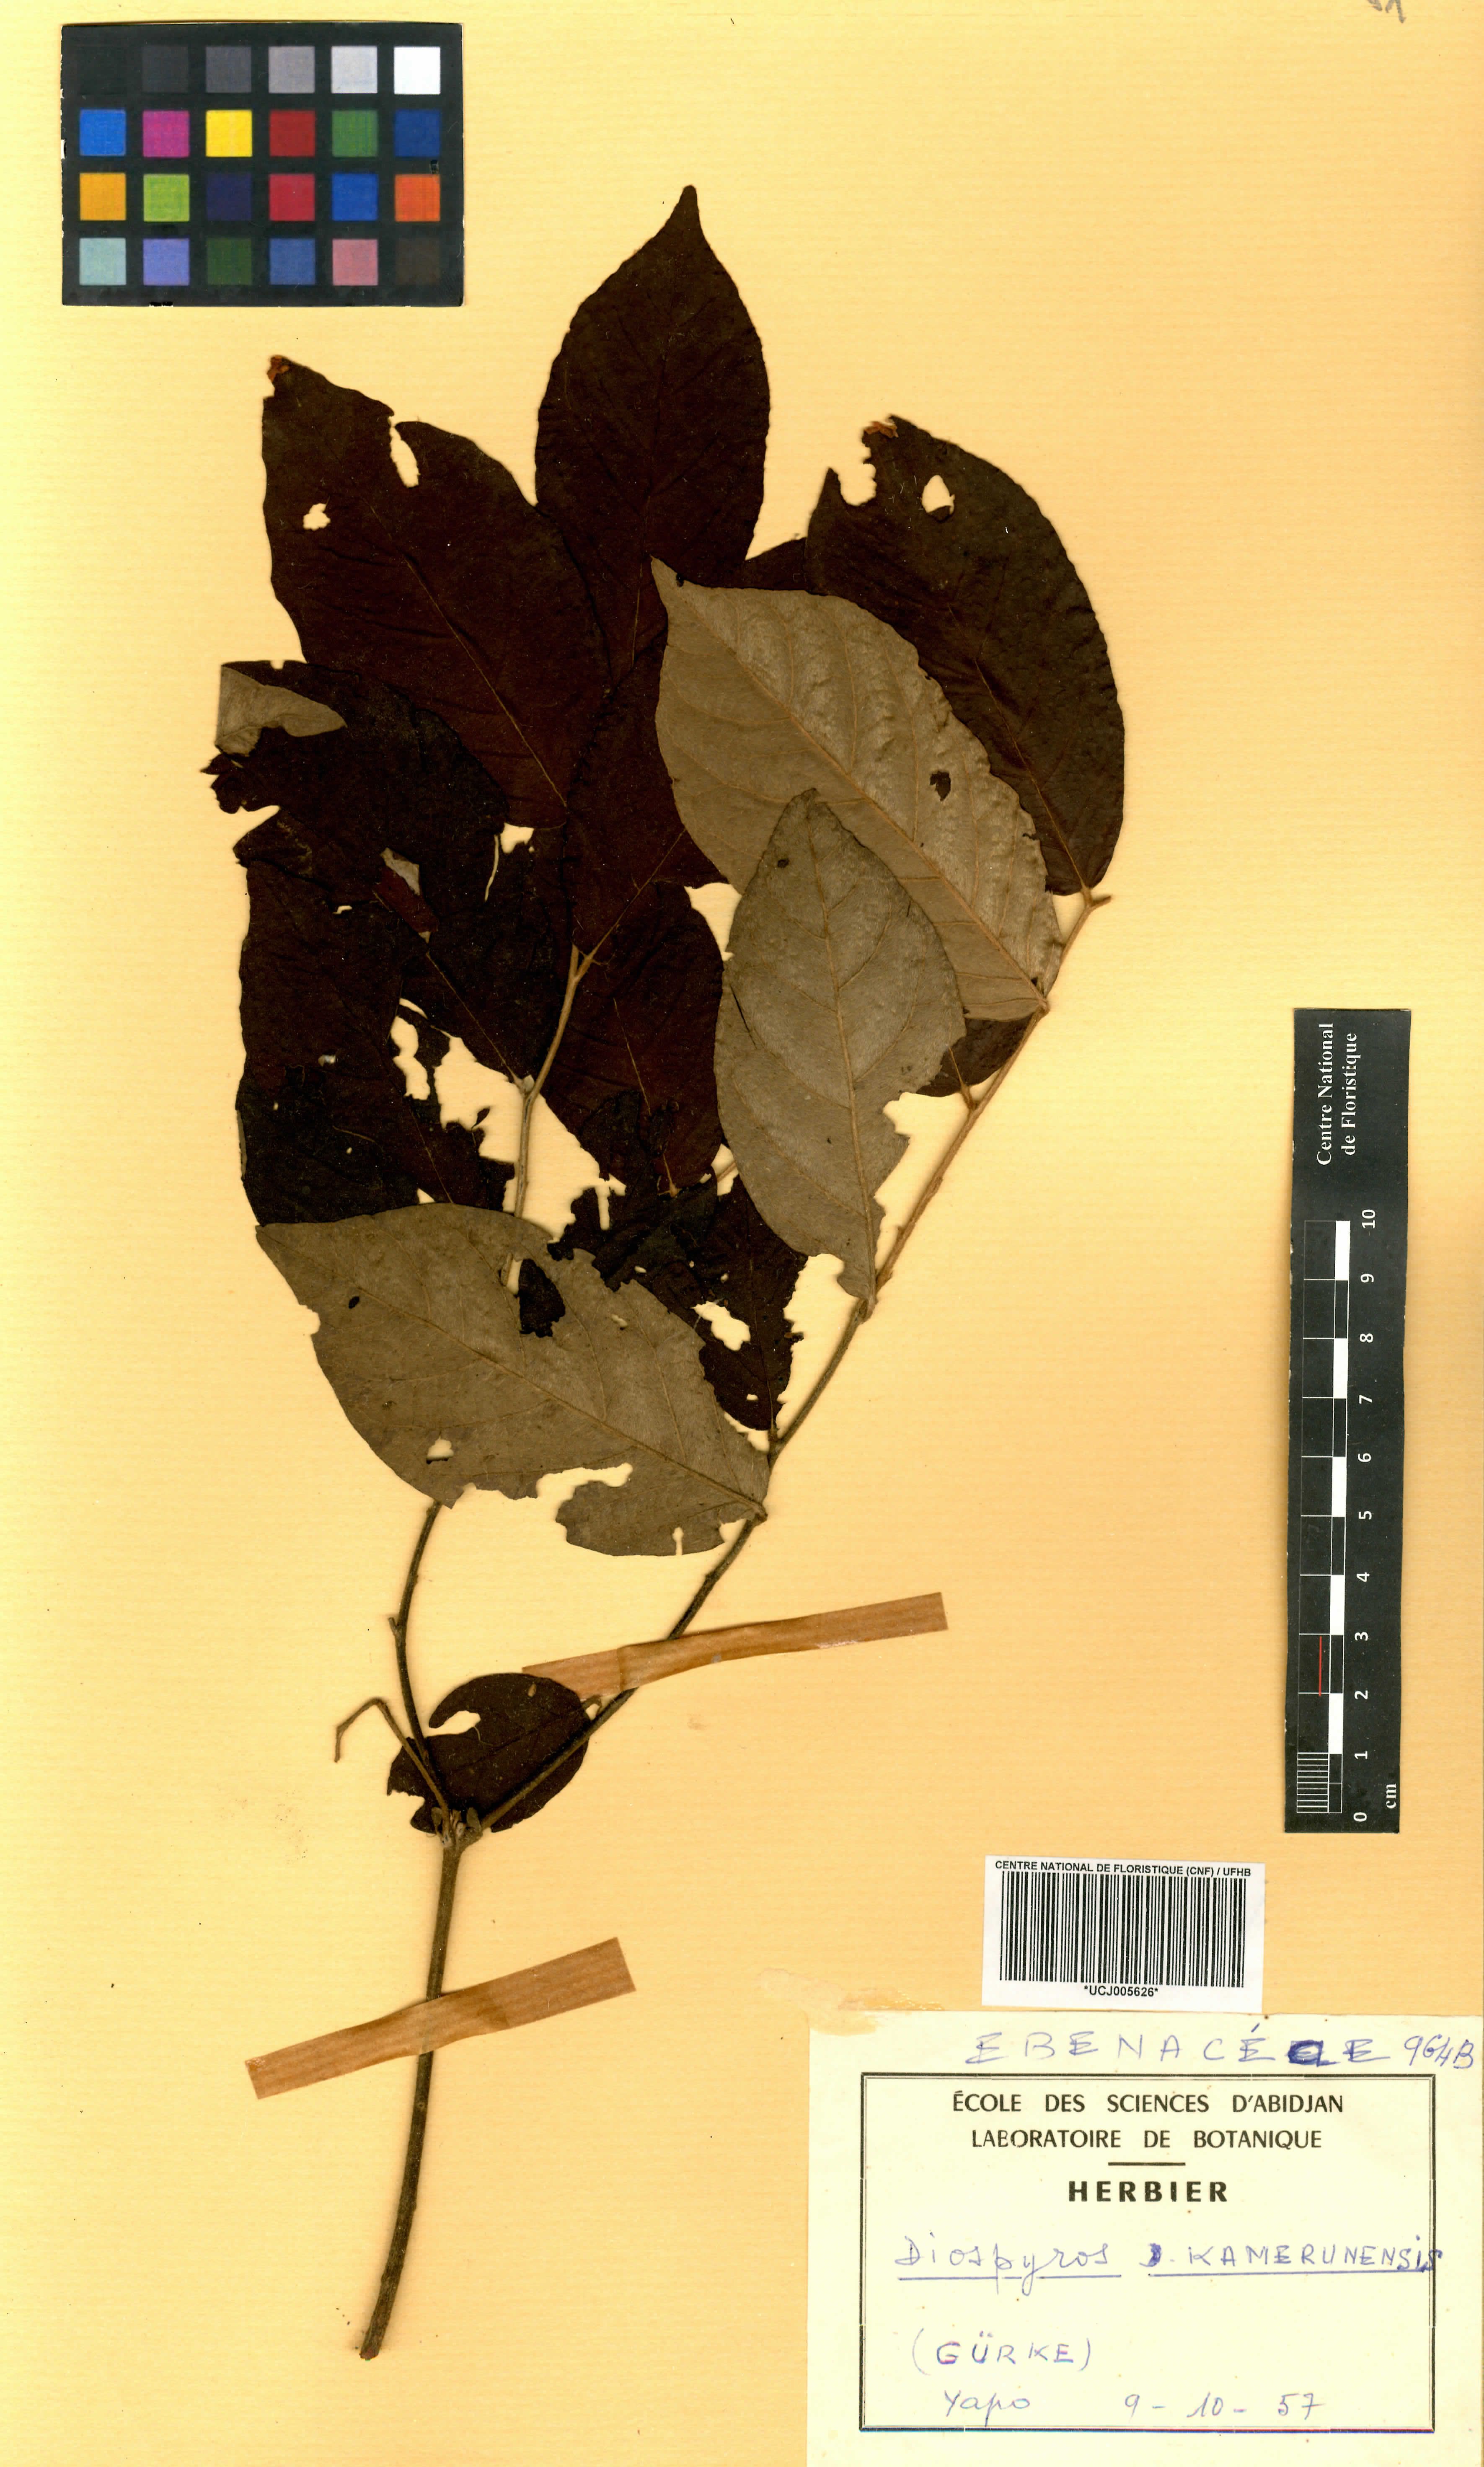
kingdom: Plantae
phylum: Tracheophyta
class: Magnoliopsida
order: Ericales
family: Ebenaceae
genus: Diospyros
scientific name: Diospyros
